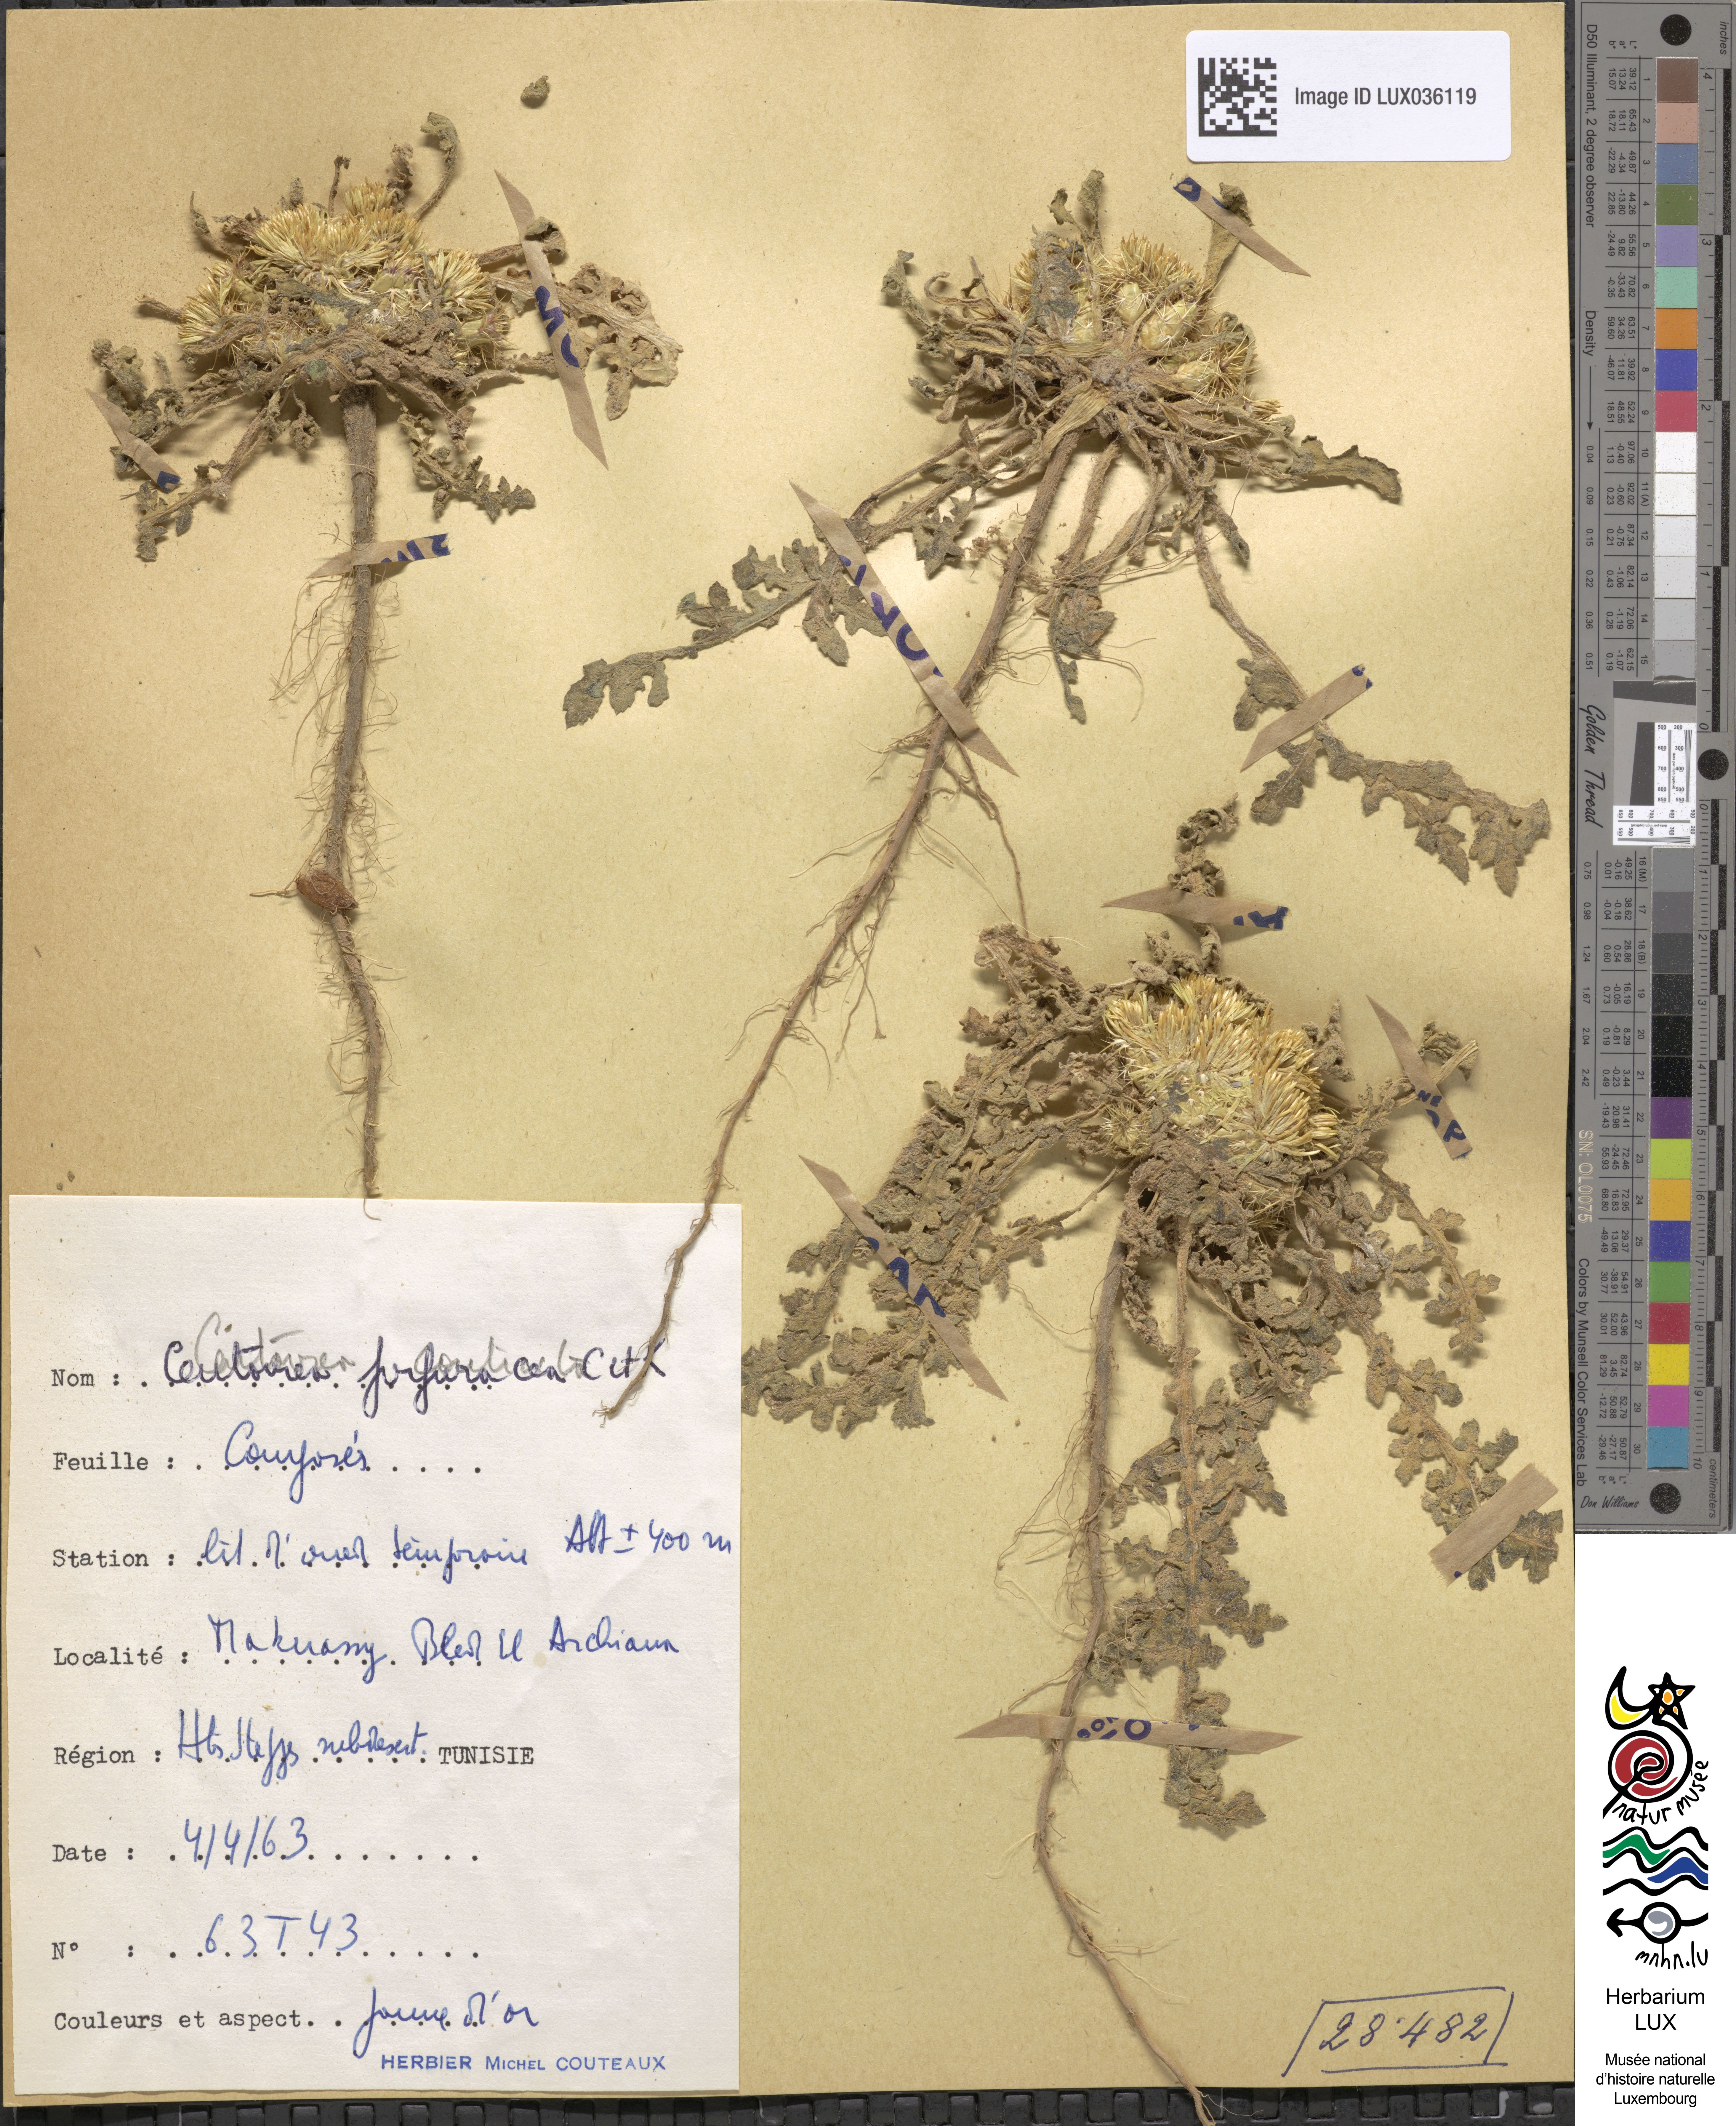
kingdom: Plantae
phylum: Tracheophyta
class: Magnoliopsida
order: Asterales
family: Asteraceae
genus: Centaurea
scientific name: Centaurea purpurea
